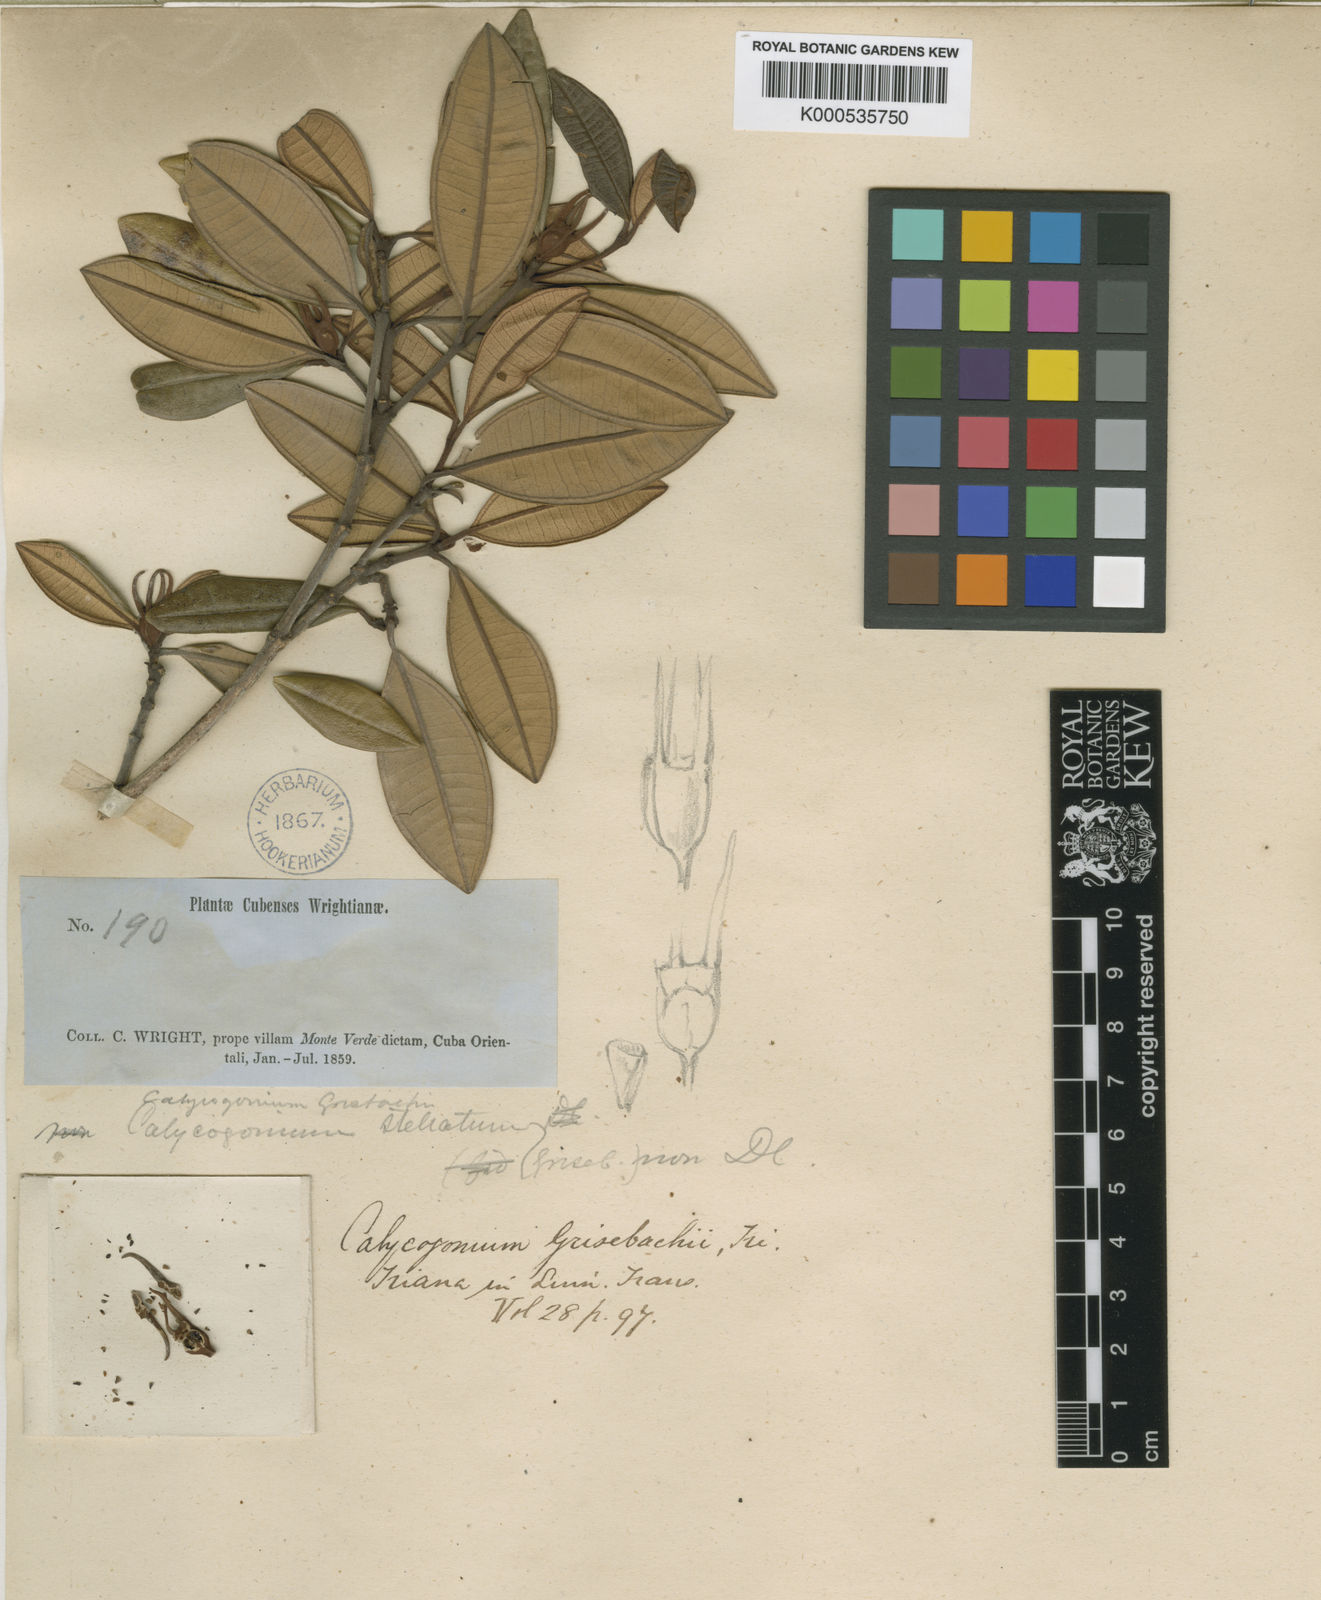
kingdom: Plantae
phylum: Tracheophyta
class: Magnoliopsida
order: Myrtales
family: Melastomataceae
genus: Miconia
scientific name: Miconia grisebachiana
